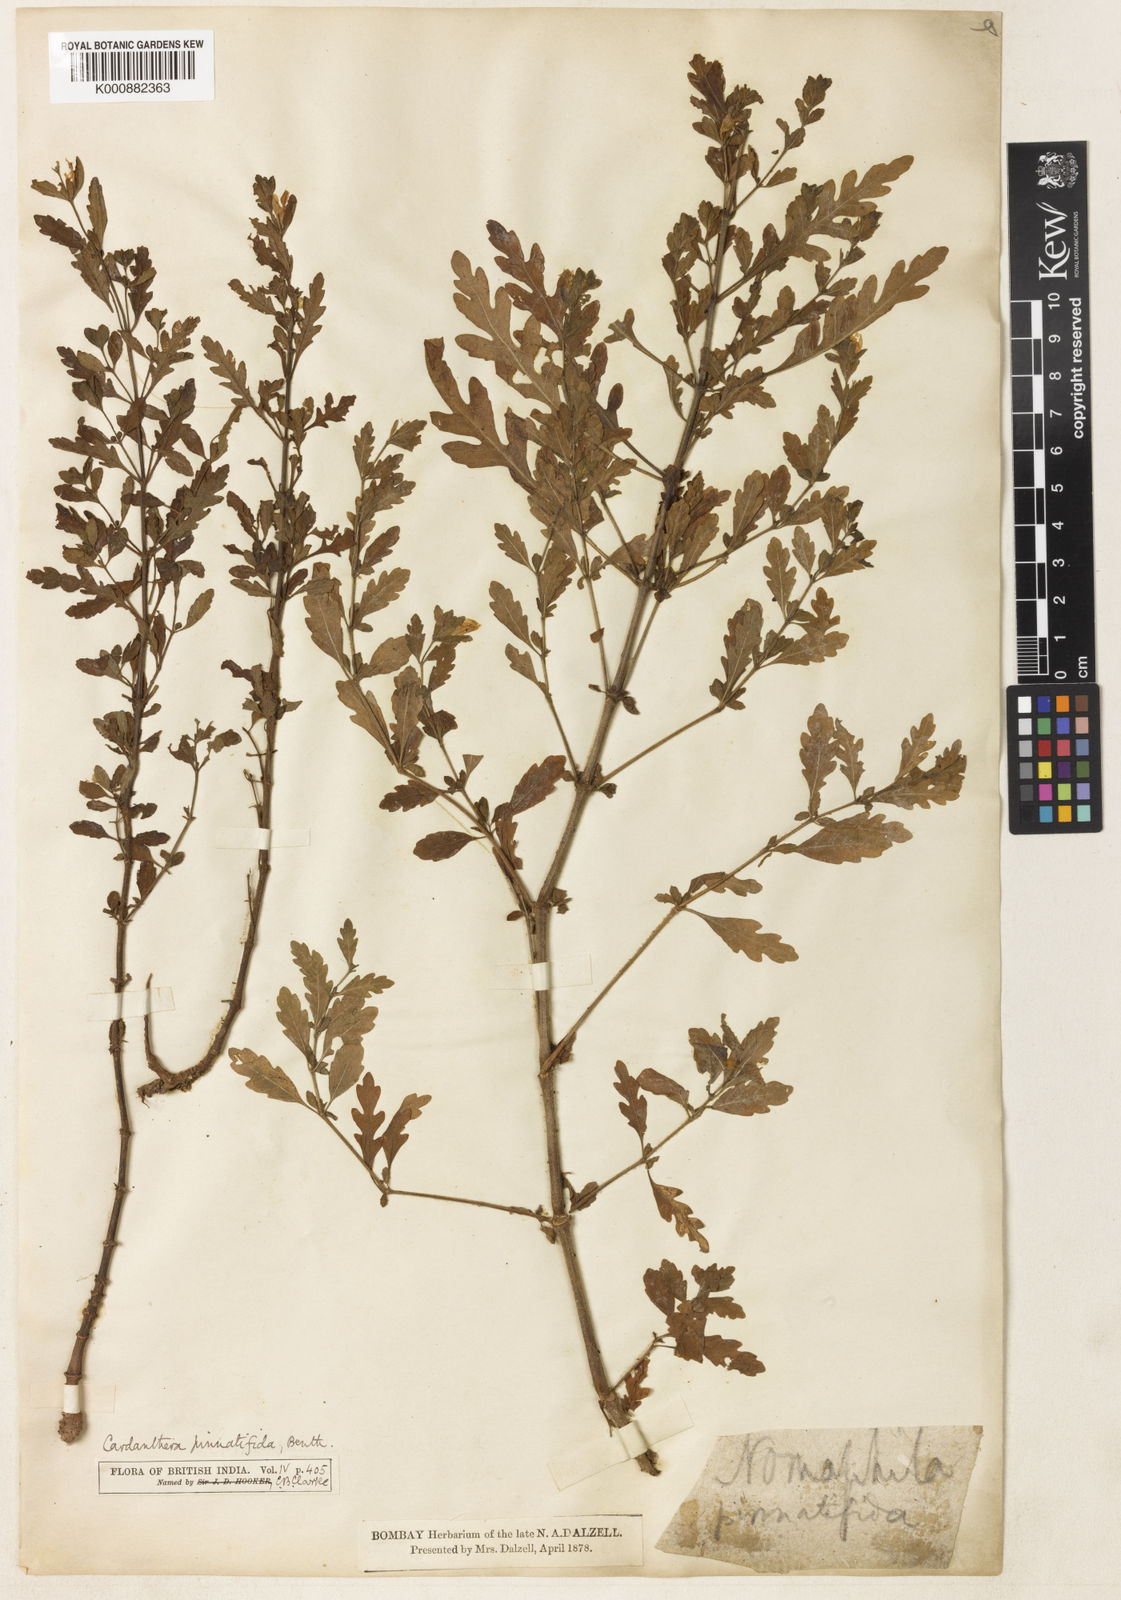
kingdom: Plantae
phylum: Tracheophyta
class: Magnoliopsida
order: Lamiales
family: Acanthaceae
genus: Hygrophila
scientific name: Hygrophila pinnatifida
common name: Indian swampweed
